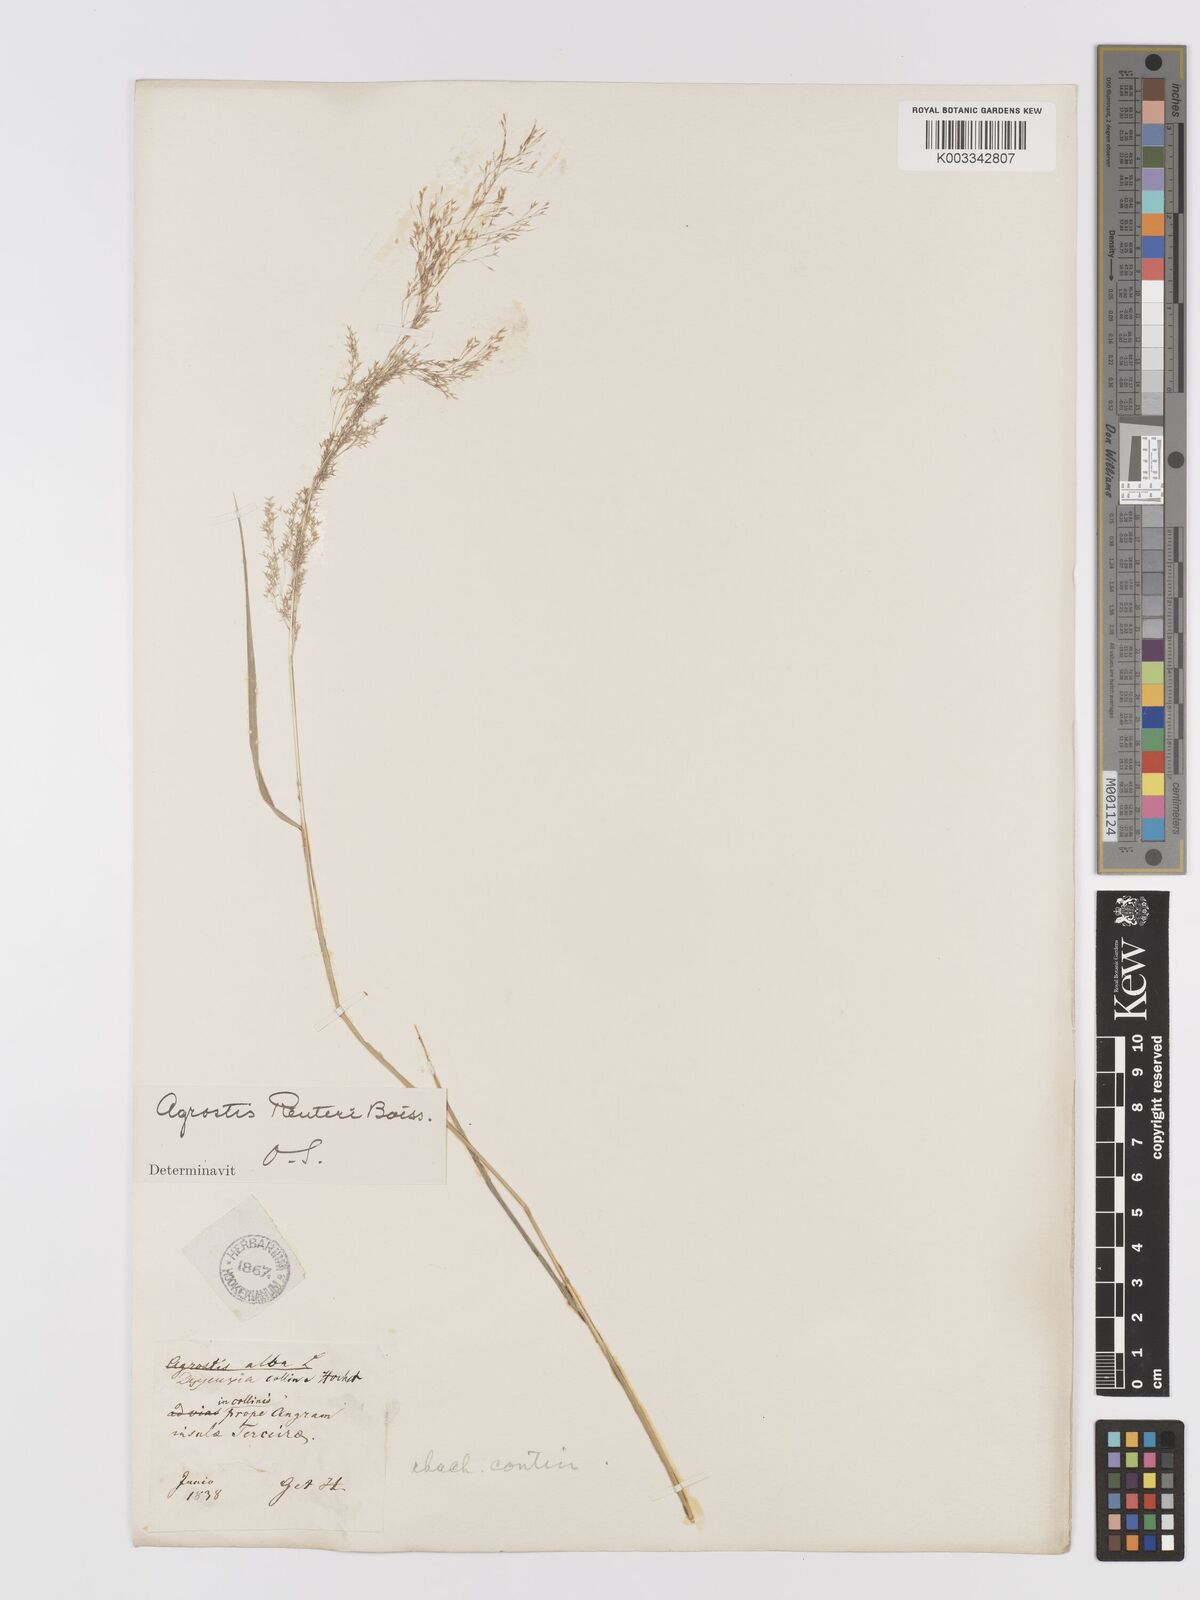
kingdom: Plantae
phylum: Tracheophyta
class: Liliopsida
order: Poales
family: Poaceae
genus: Agrostis
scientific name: Agrostis reuteri
